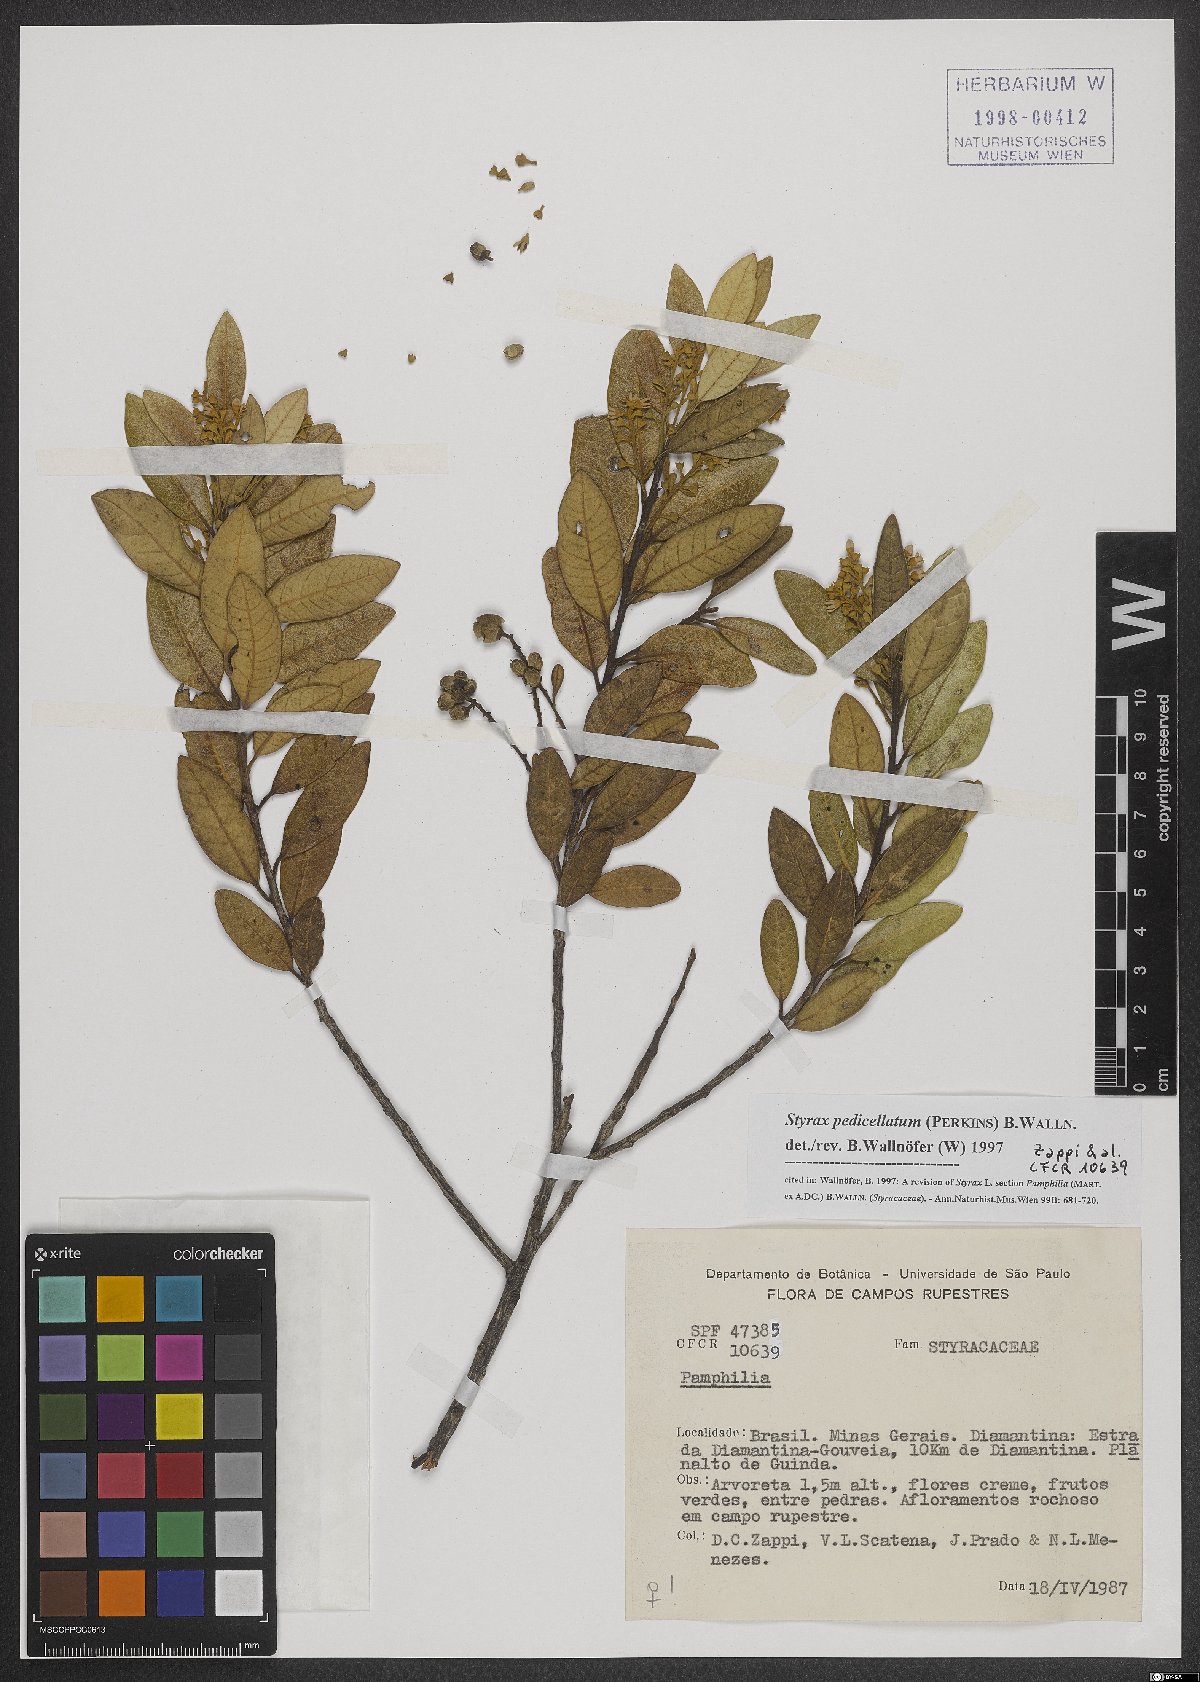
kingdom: Plantae
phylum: Tracheophyta
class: Magnoliopsida
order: Ericales
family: Styracaceae
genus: Styrax
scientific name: Styrax pedicellatus
